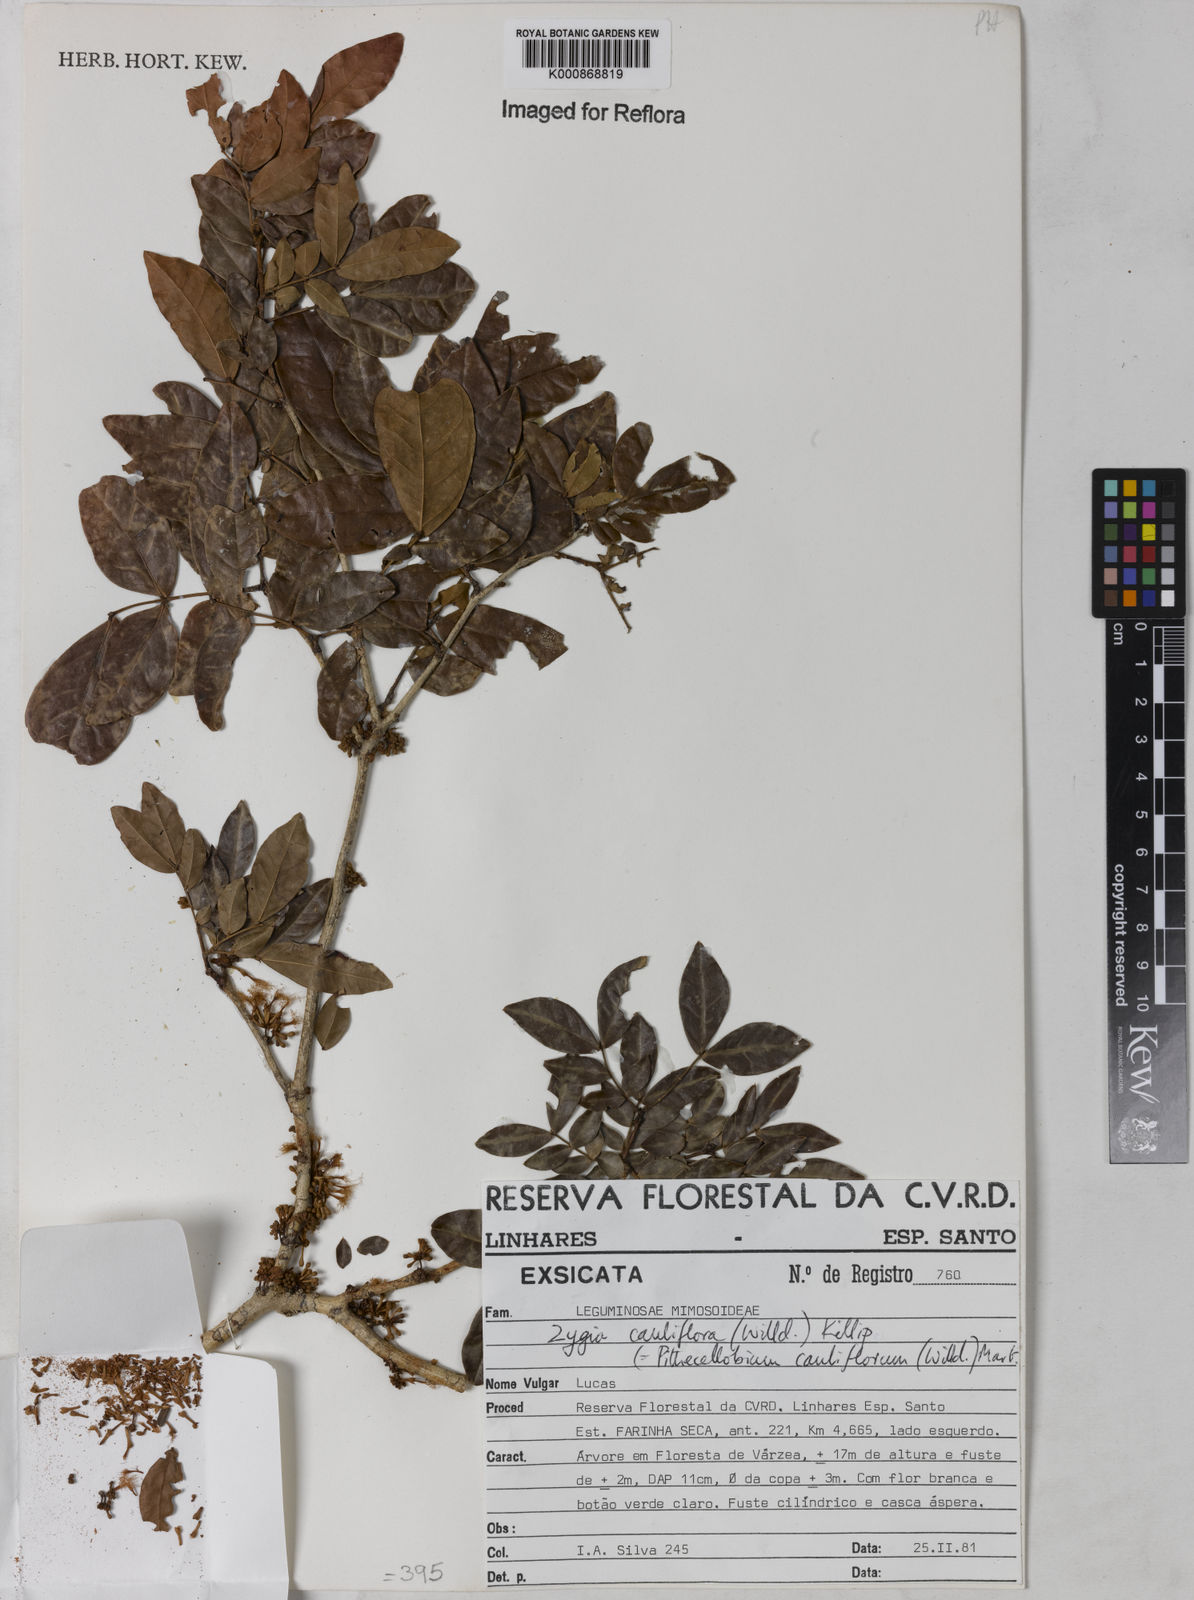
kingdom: Plantae
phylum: Tracheophyta
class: Magnoliopsida
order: Fabales
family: Fabaceae
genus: Zygia
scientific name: Zygia
